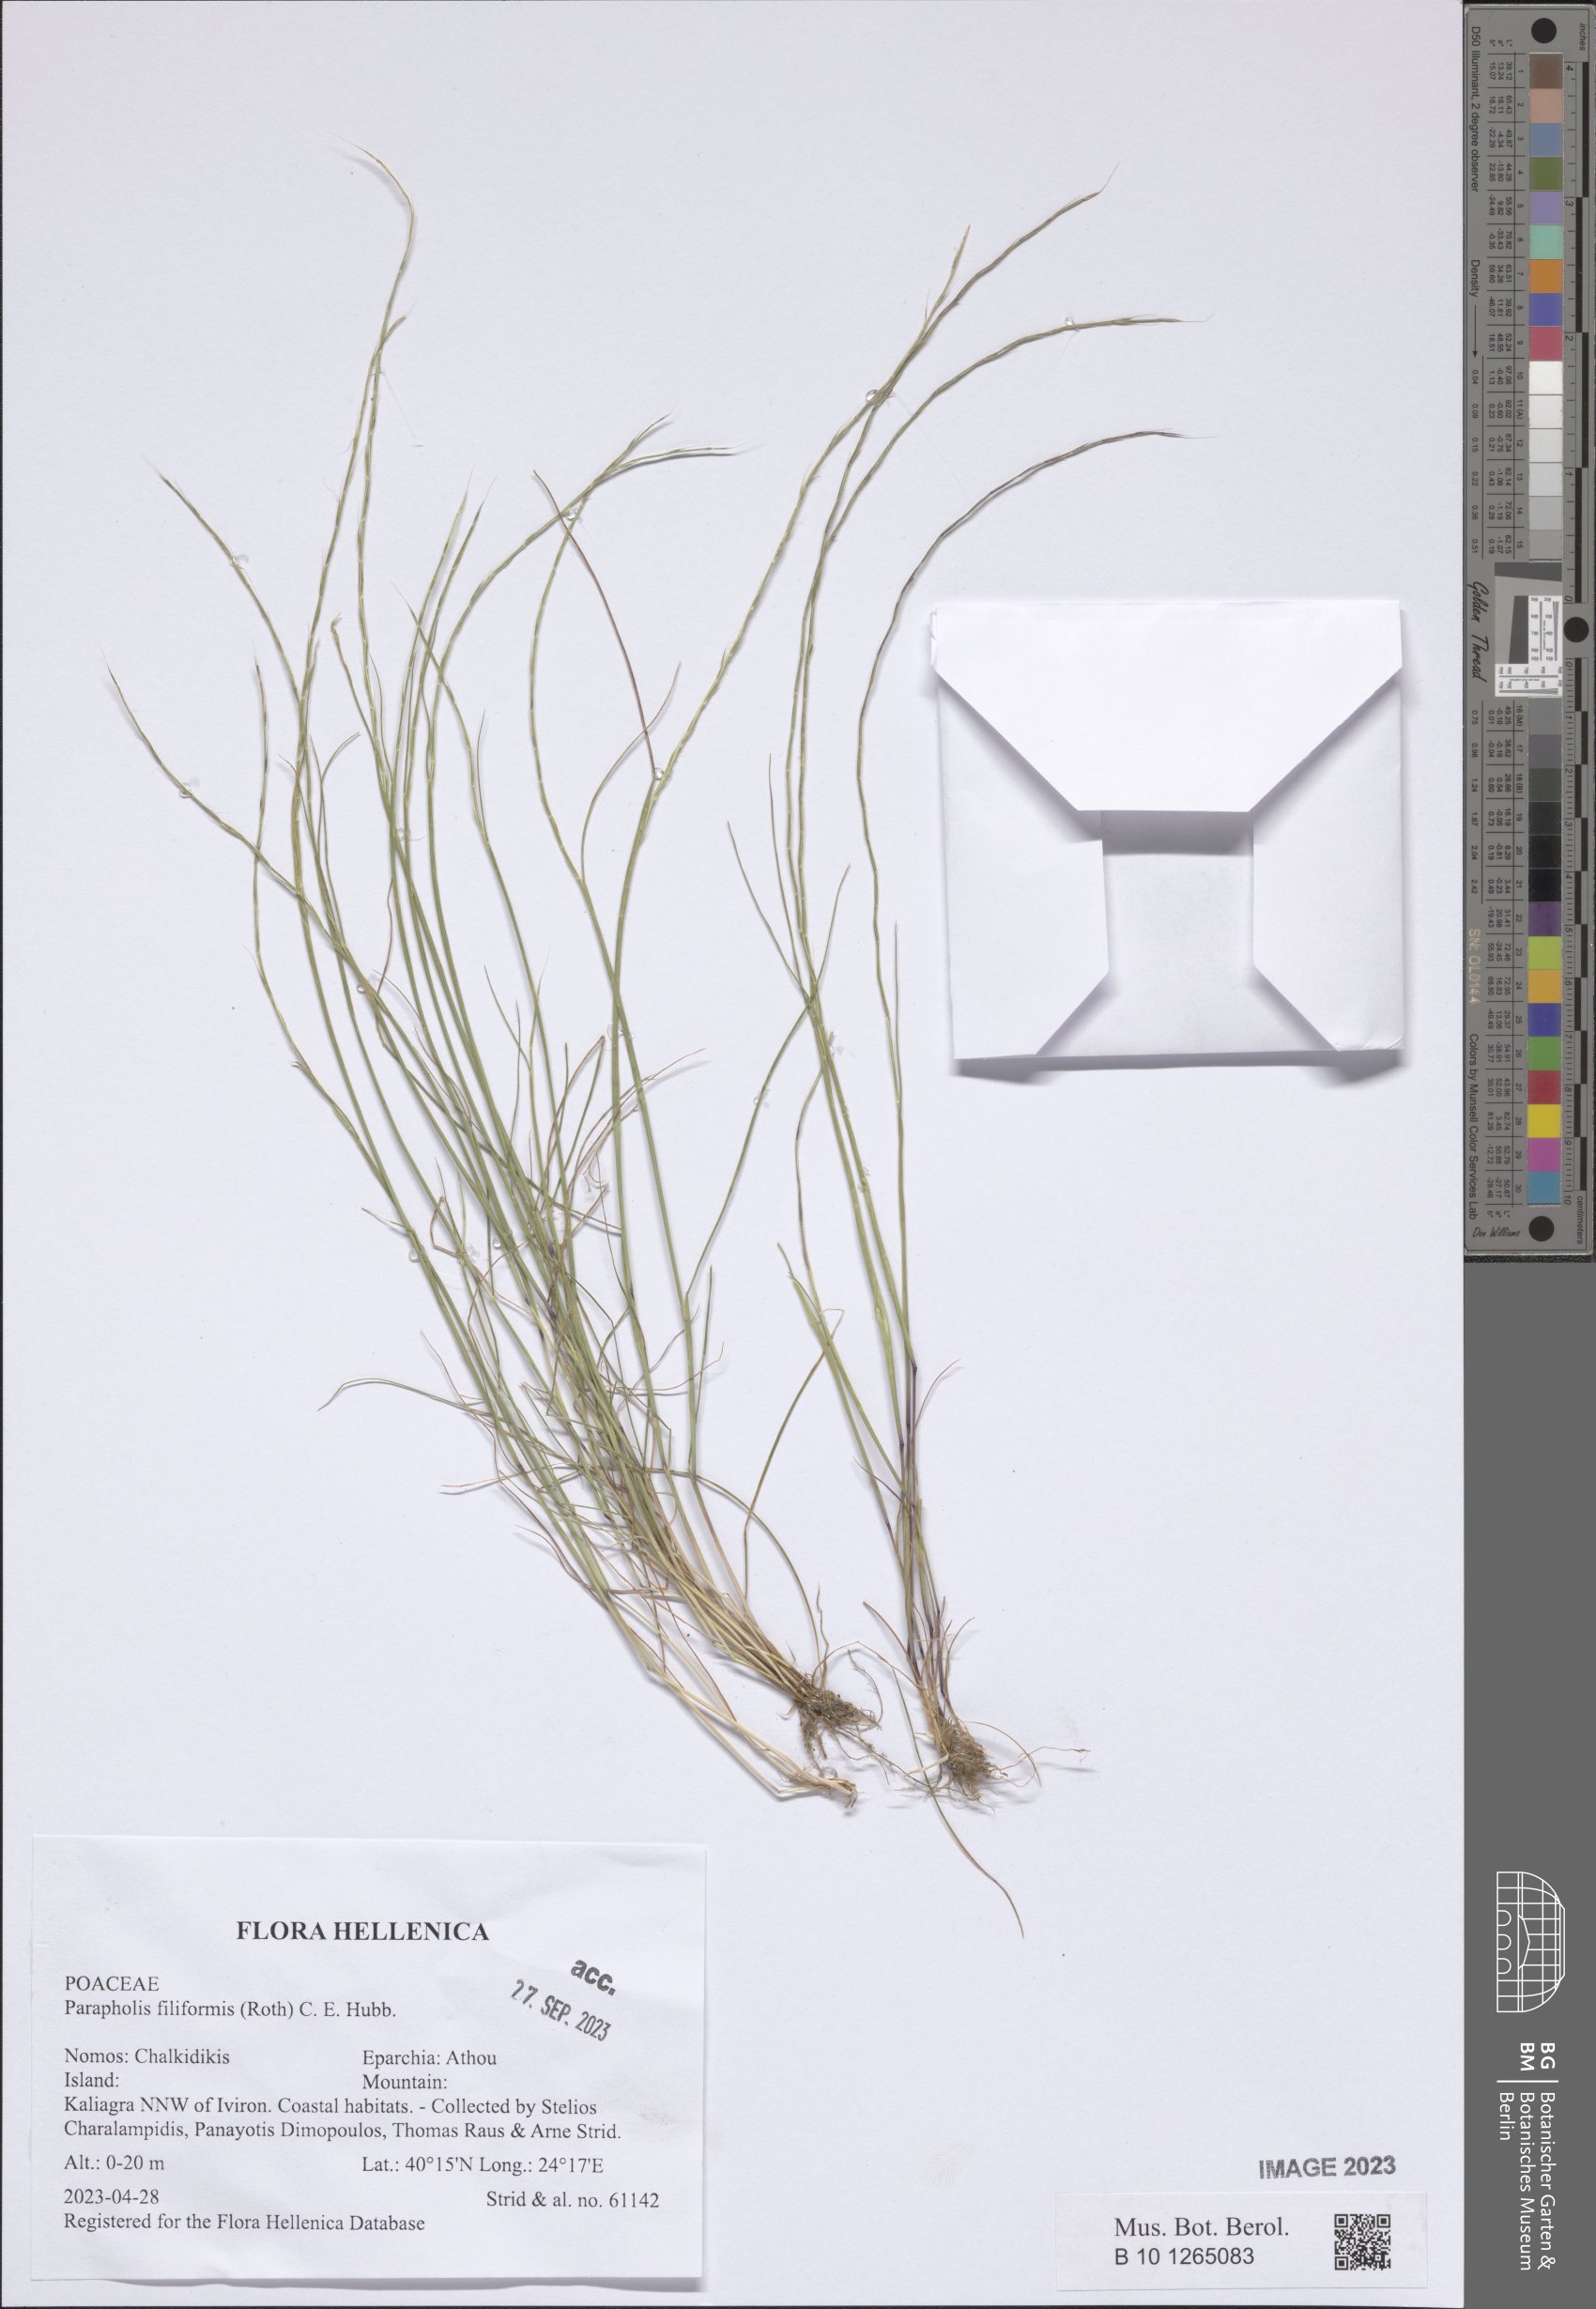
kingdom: Plantae
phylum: Tracheophyta
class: Liliopsida
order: Poales
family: Poaceae
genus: Parapholis
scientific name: Parapholis filiformis
